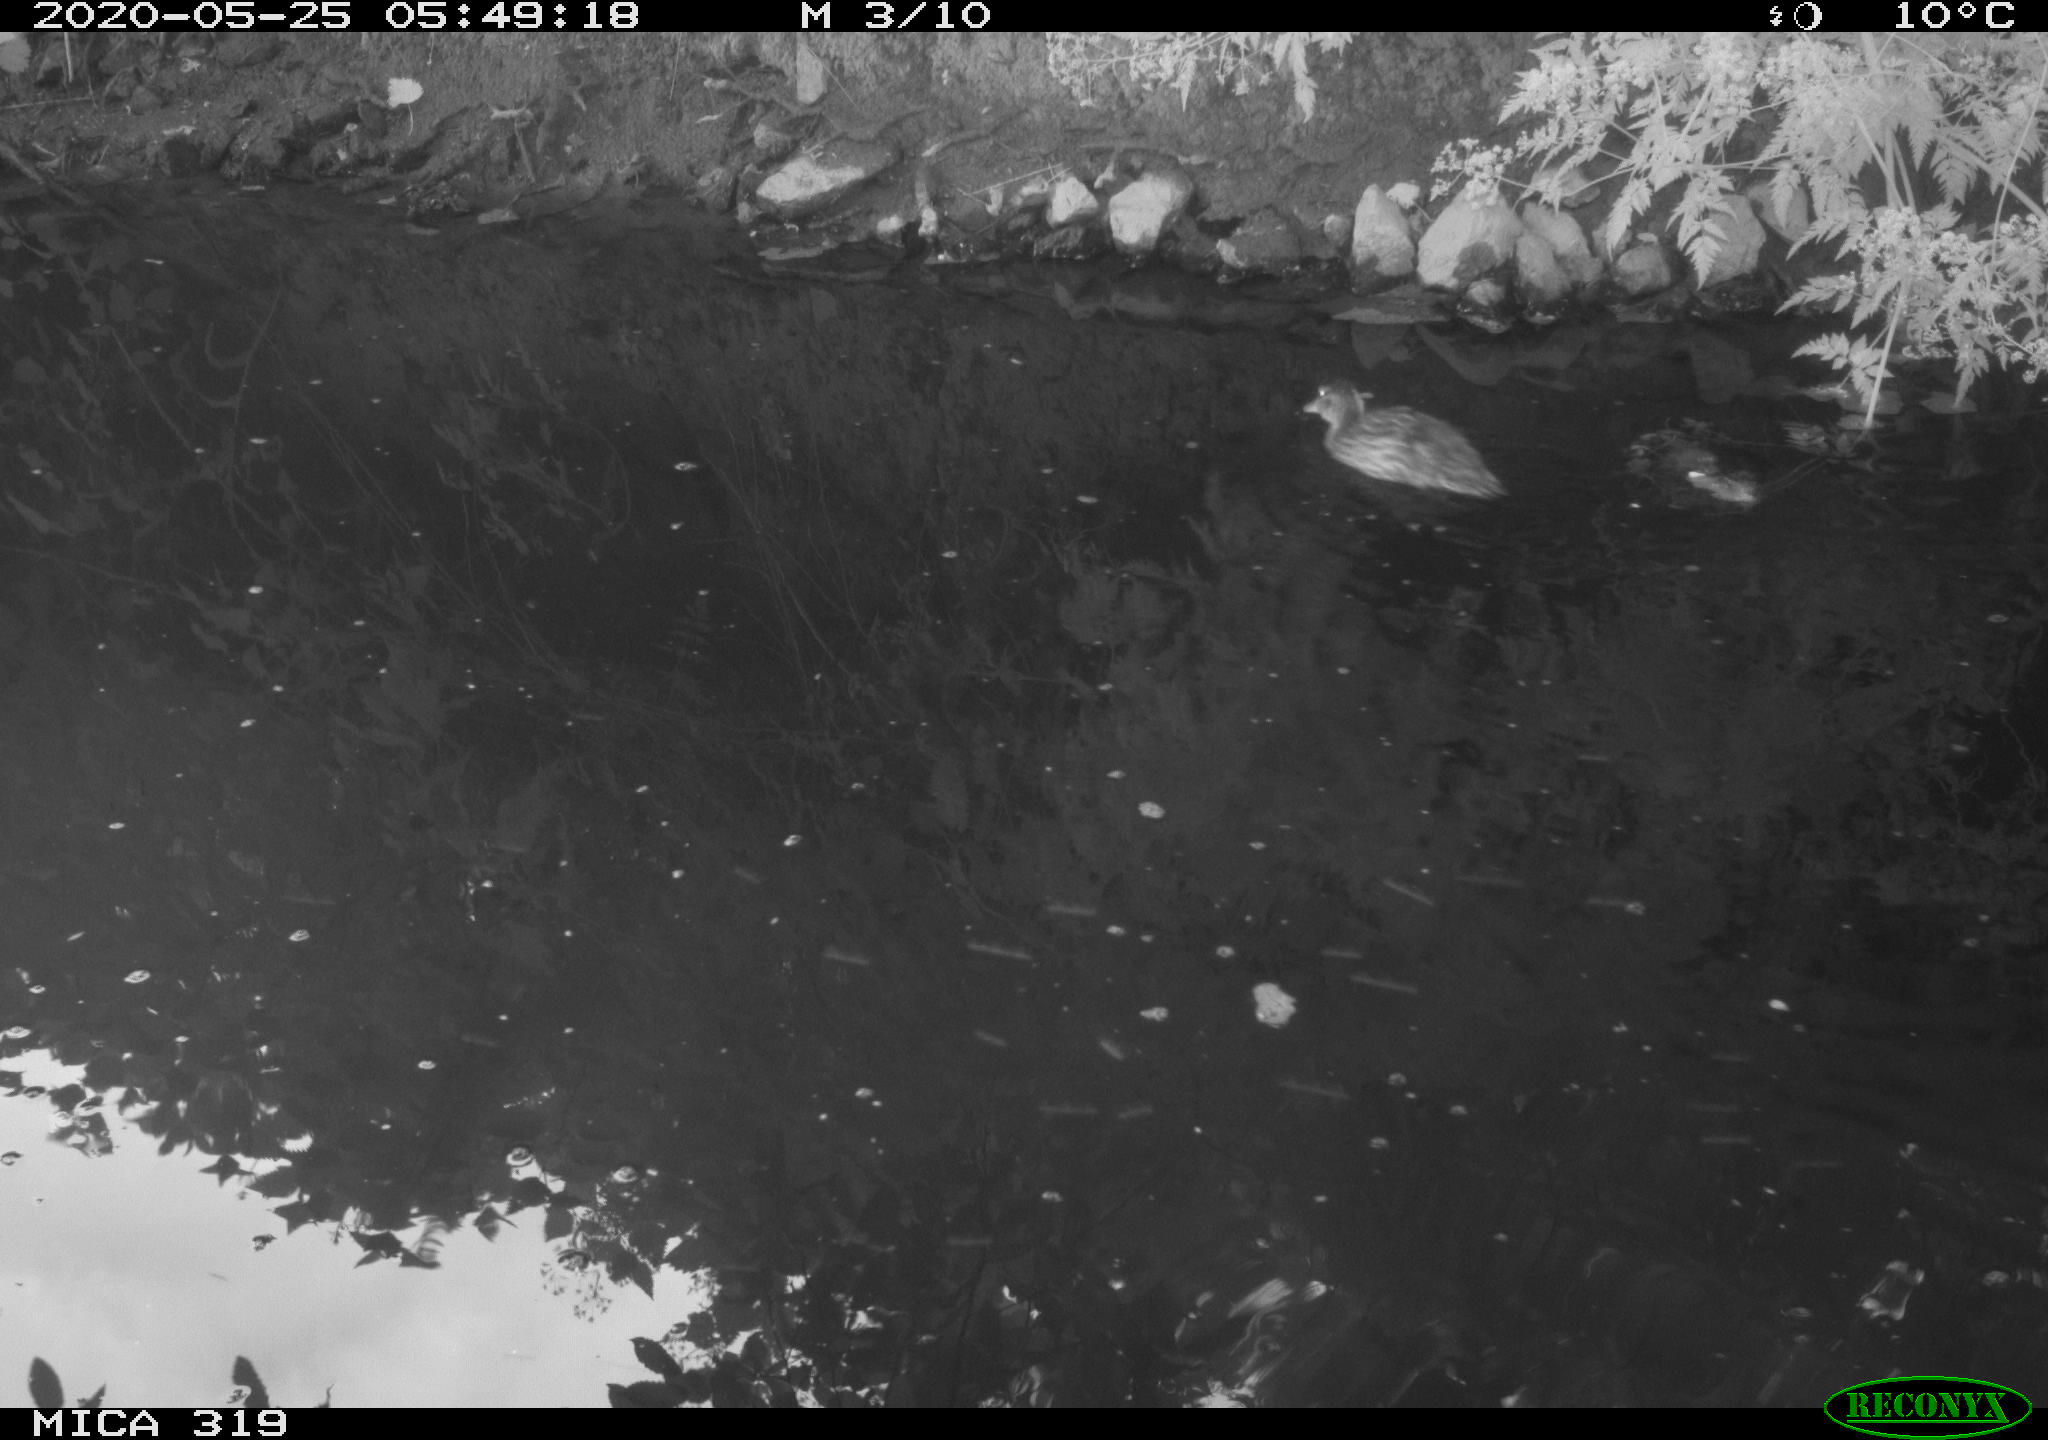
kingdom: Animalia
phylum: Chordata
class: Aves
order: Anseriformes
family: Anatidae
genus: Anas
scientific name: Anas platyrhynchos
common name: Mallard
